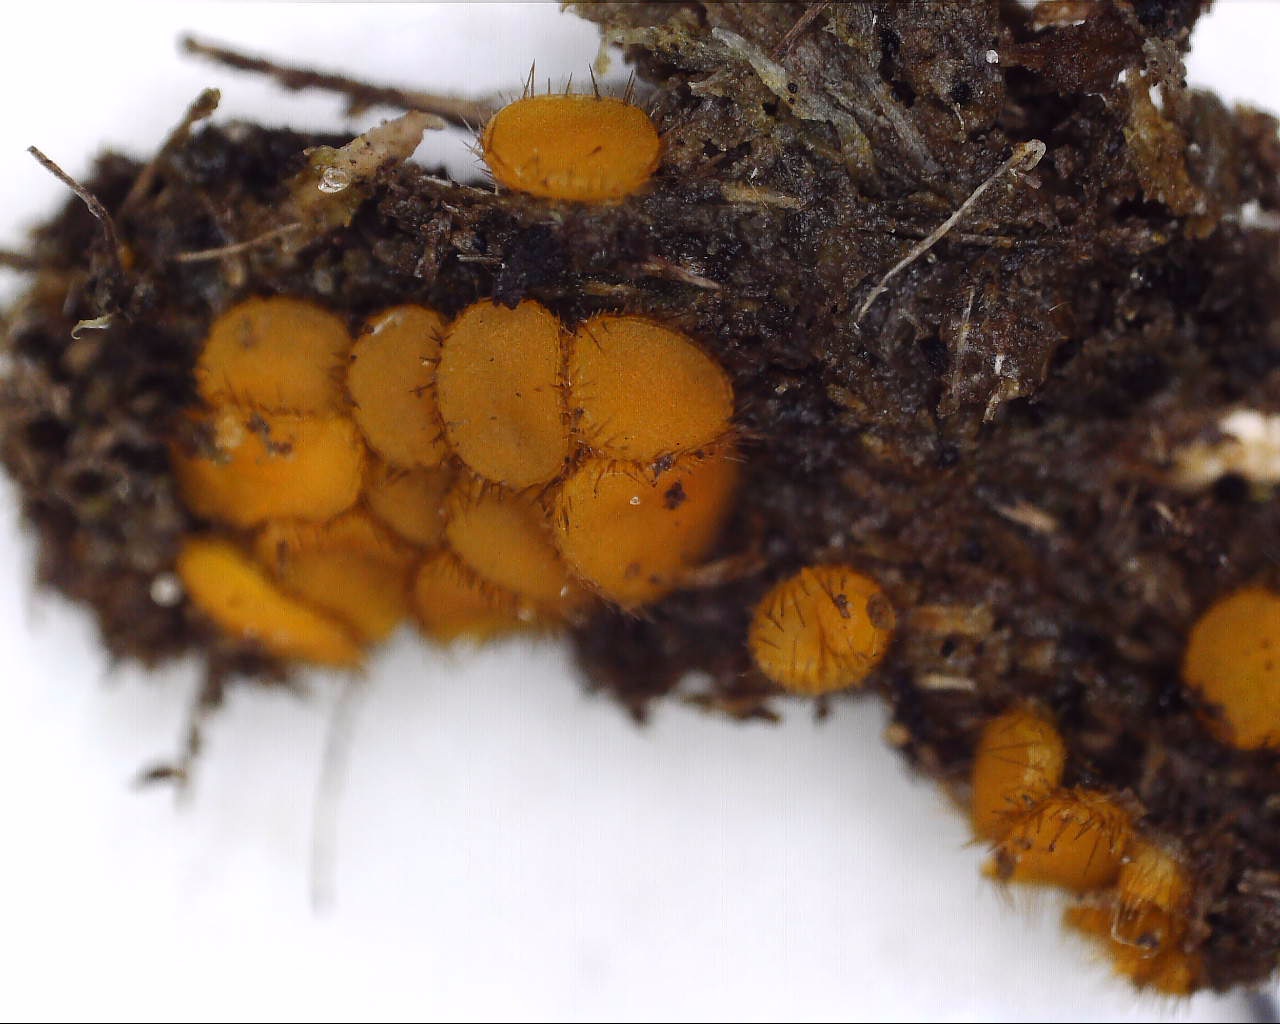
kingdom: Fungi
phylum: Ascomycota
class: Pezizomycetes
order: Pezizales
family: Pyronemataceae
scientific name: Pyronemataceae
